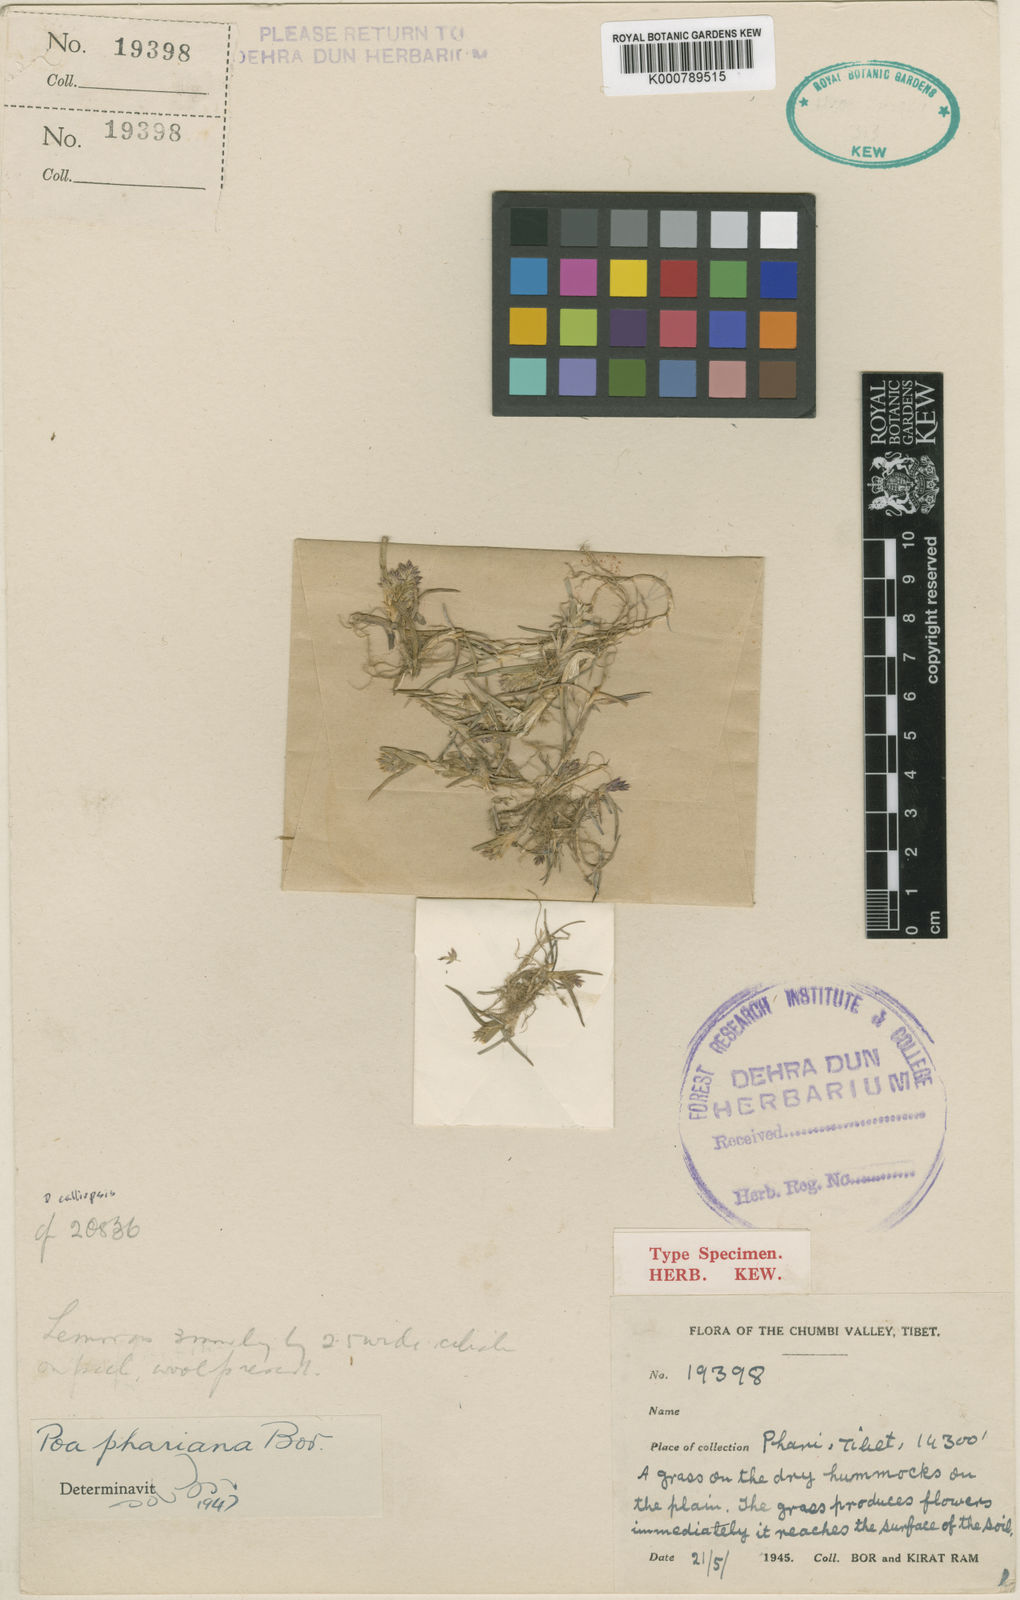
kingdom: Plantae
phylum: Tracheophyta
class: Liliopsida
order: Poales
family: Poaceae
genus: Poa
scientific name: Poa calliopsis
